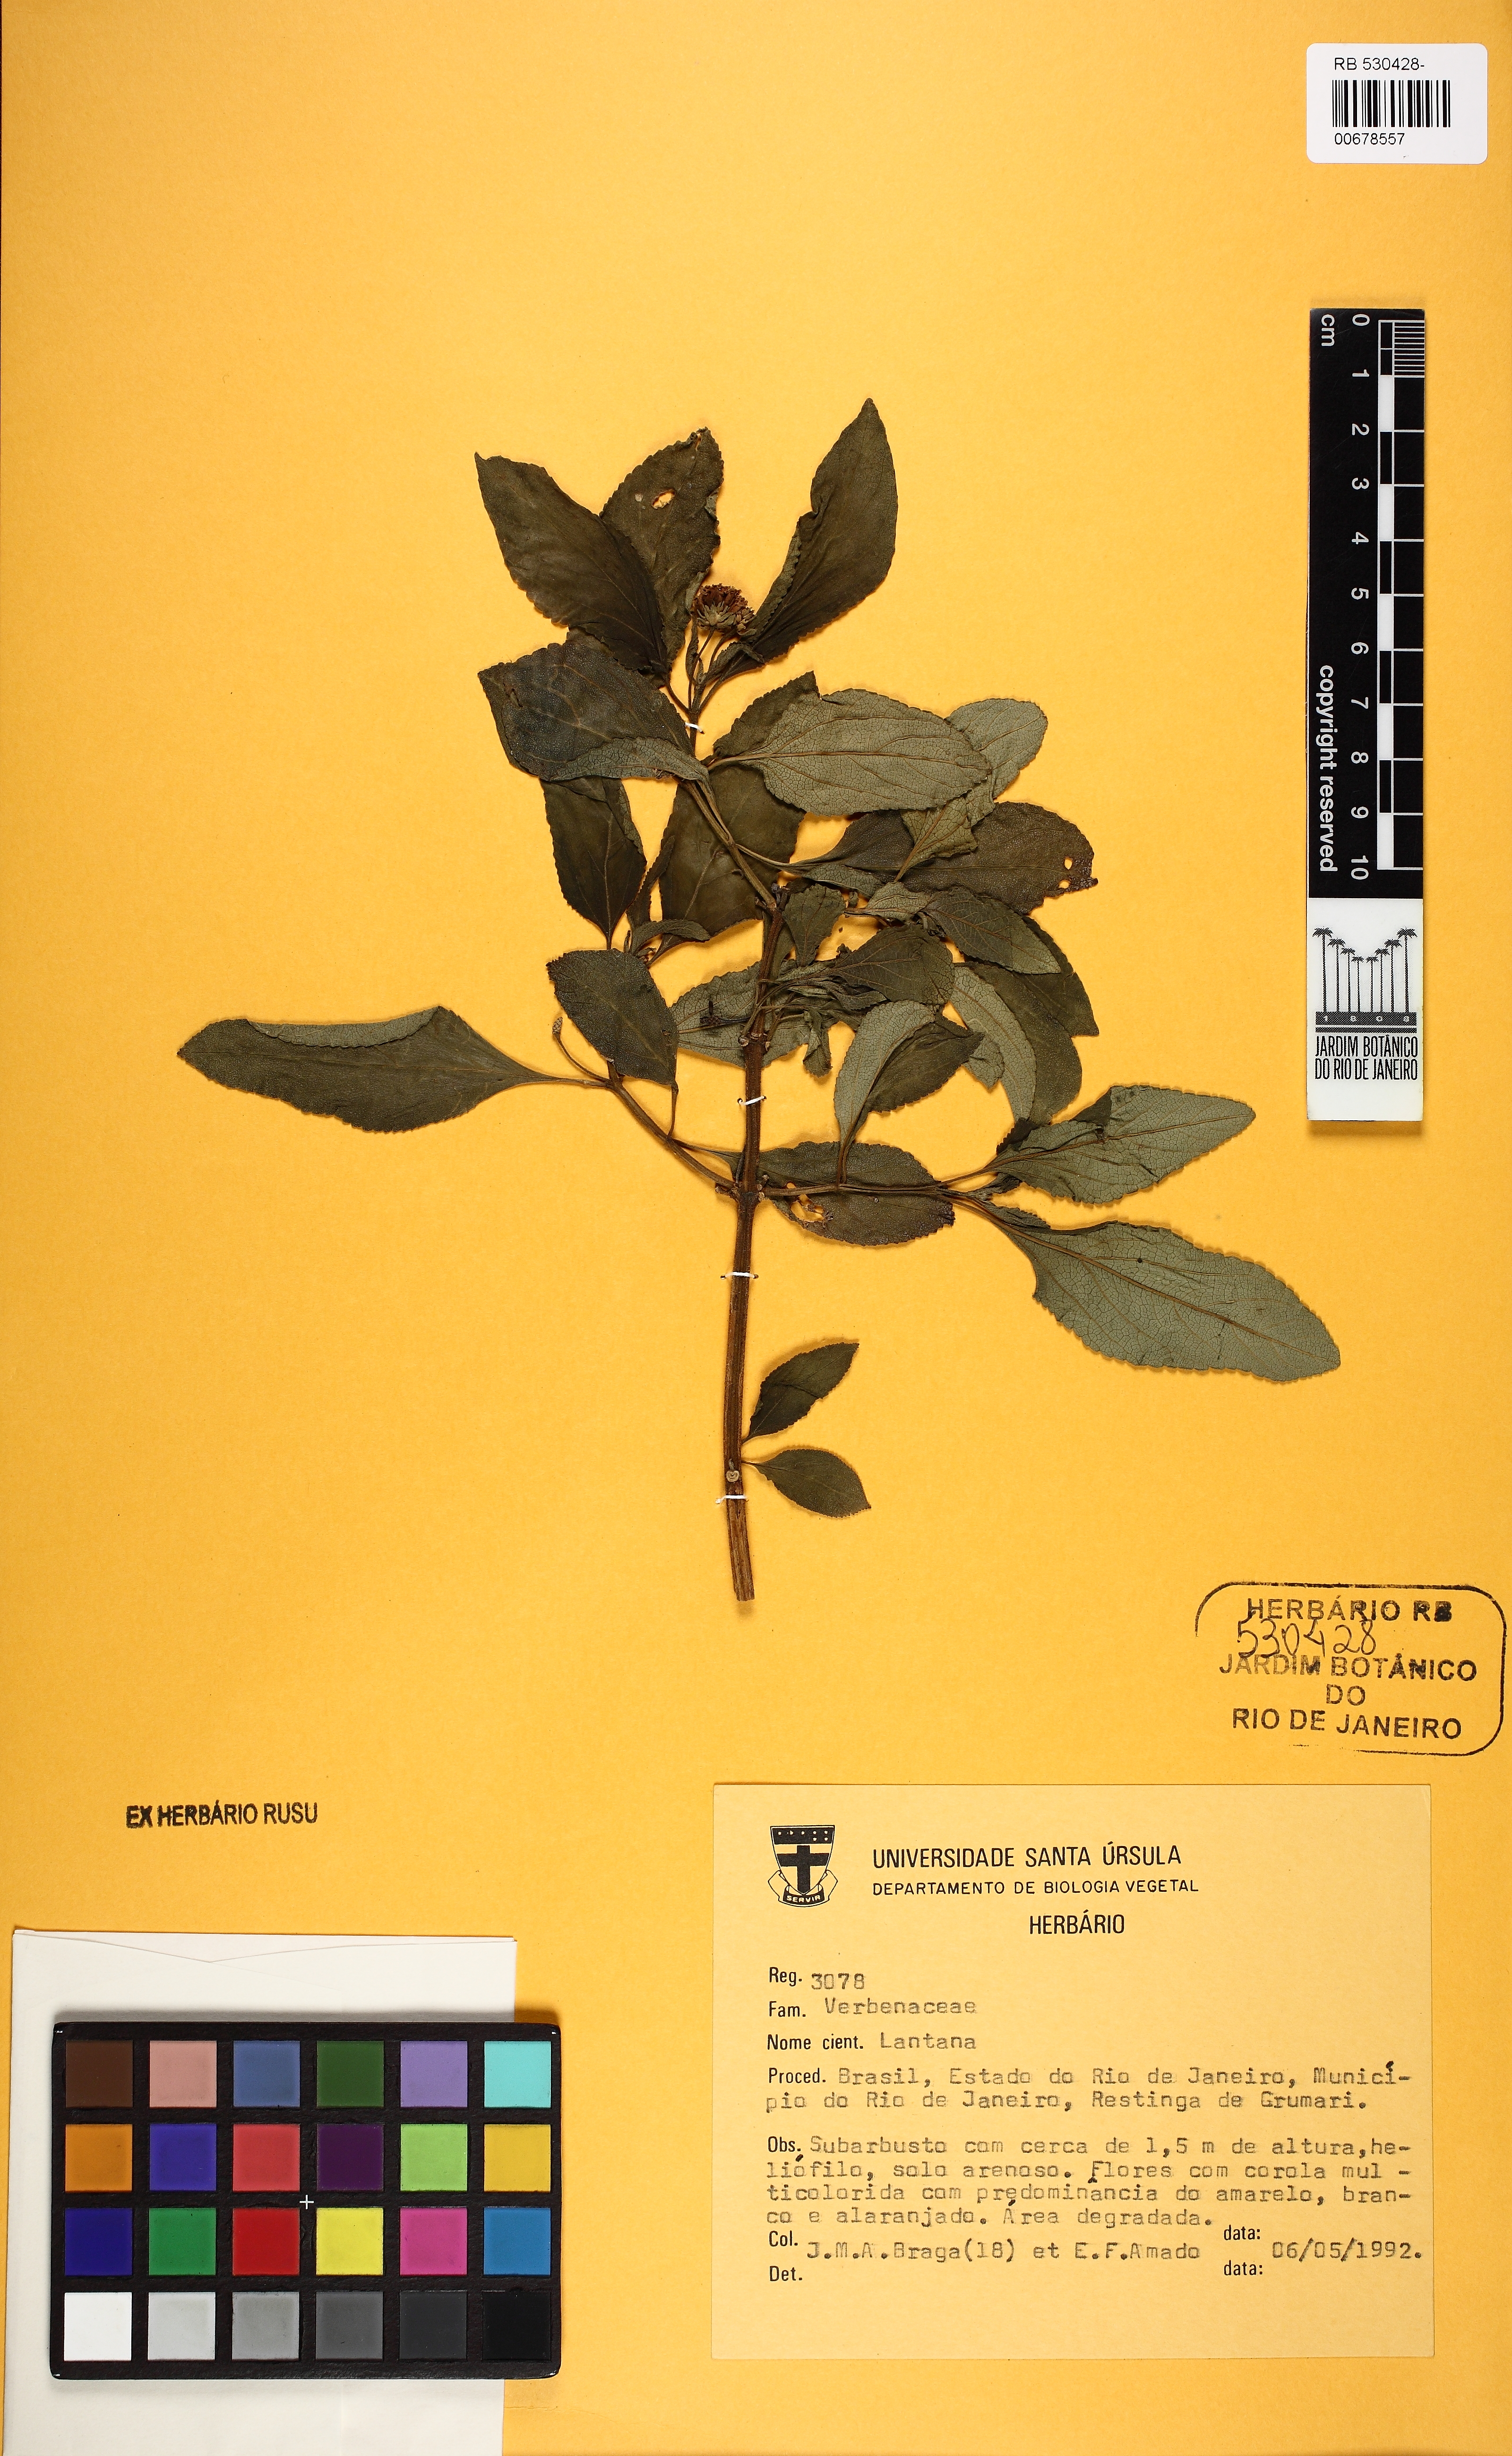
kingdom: Plantae
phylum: Tracheophyta
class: Magnoliopsida
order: Lamiales
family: Verbenaceae
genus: Lantana
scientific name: Lantana
